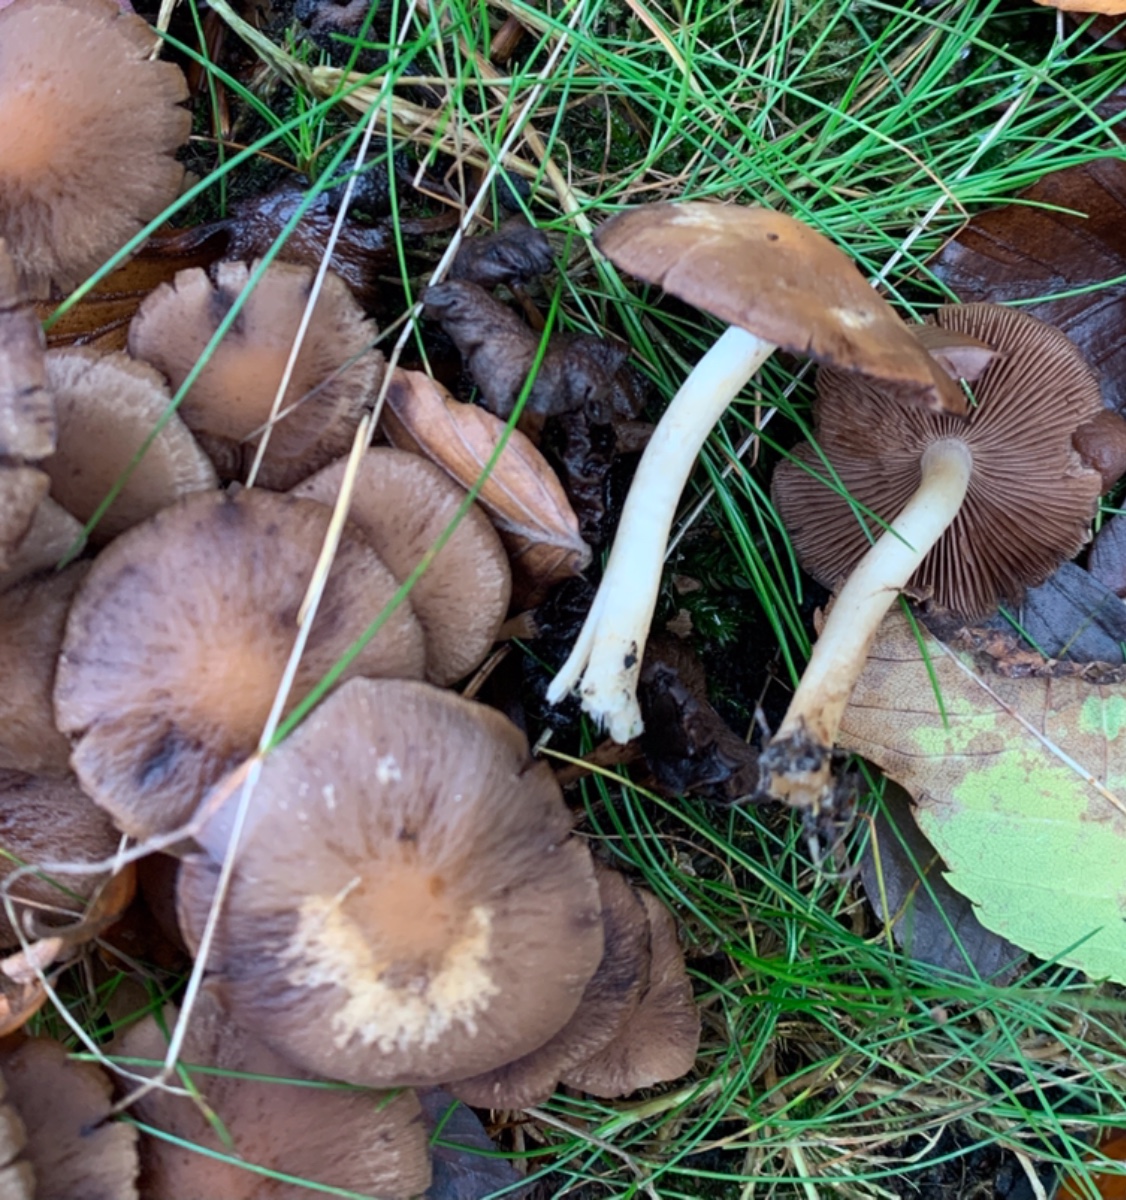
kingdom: Fungi
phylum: Basidiomycota
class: Agaricomycetes
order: Agaricales
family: Psathyrellaceae
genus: Psathyrella
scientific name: Psathyrella piluliformis
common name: lysstokket mørkhat
